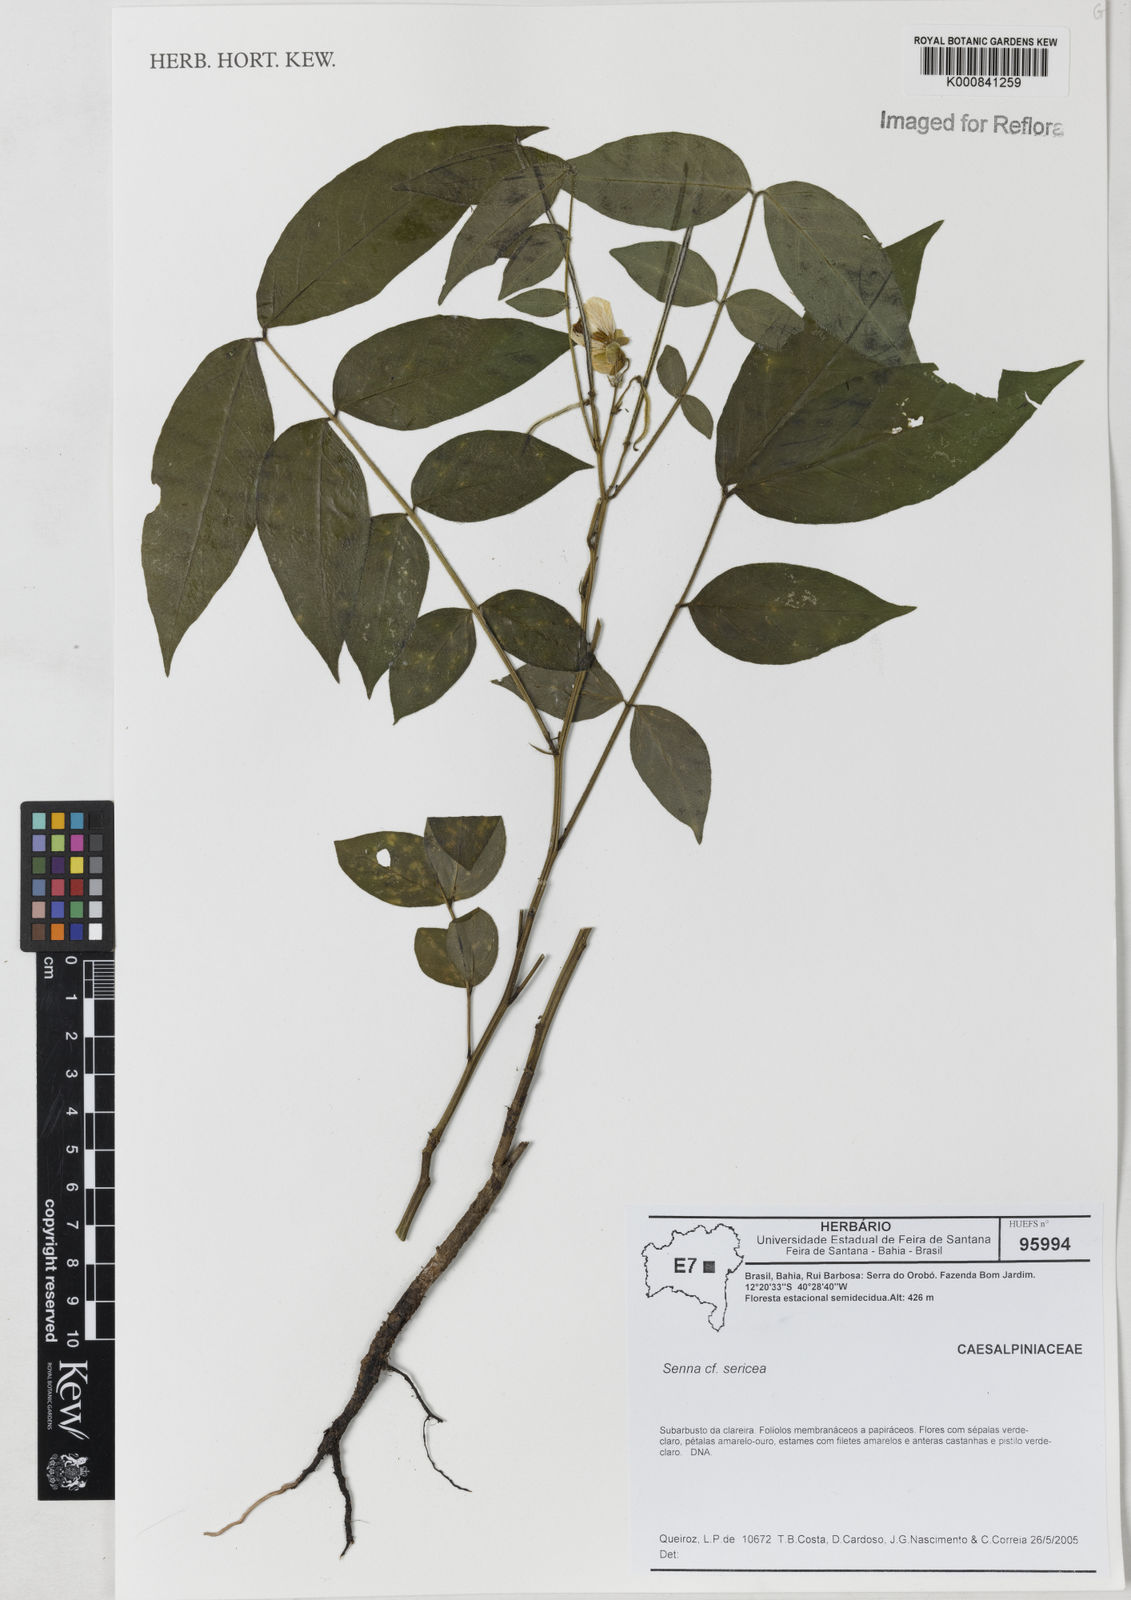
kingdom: Plantae
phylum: Tracheophyta
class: Magnoliopsida
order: Fabales
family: Fabaceae
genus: Senna
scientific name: Senna sericea
